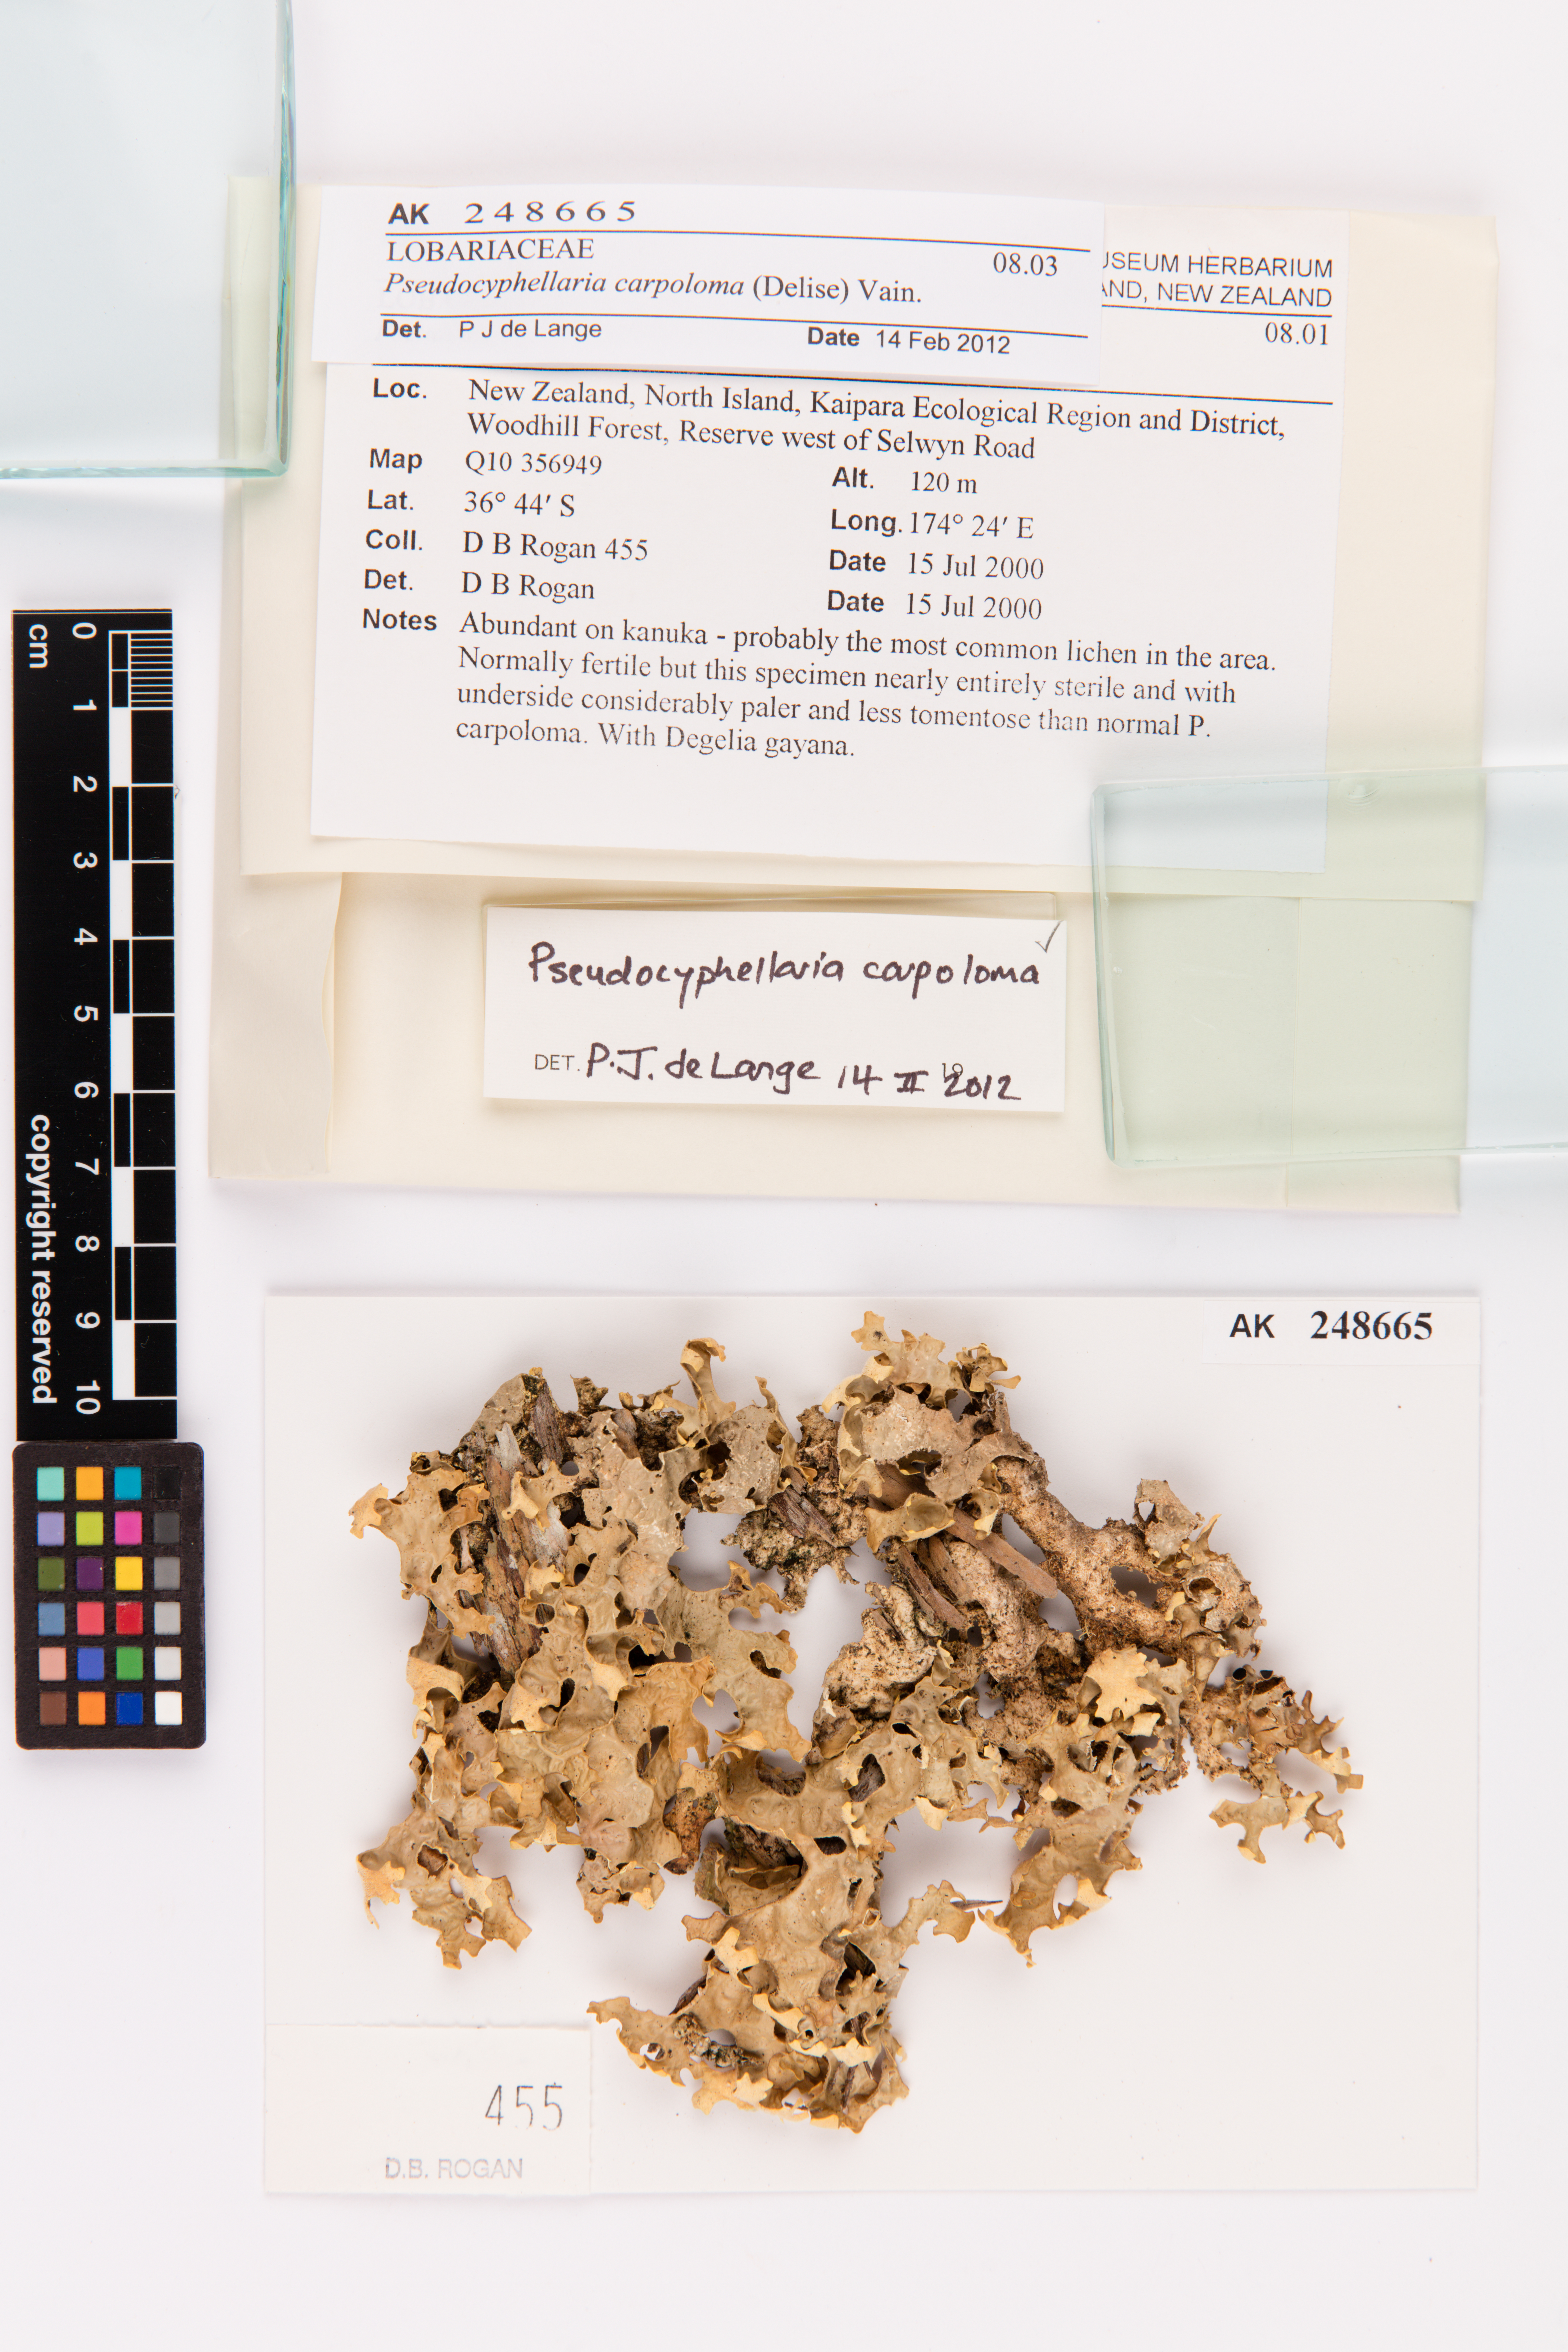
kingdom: Fungi
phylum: Ascomycota
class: Lecanoromycetes
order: Peltigerales
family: Lobariaceae
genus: Pseudocyphellaria
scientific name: Pseudocyphellaria carpoloma
